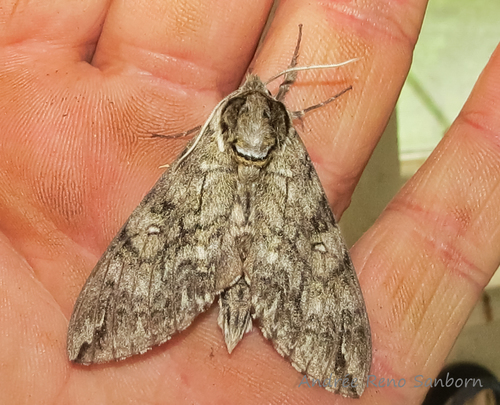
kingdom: Animalia
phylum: Arthropoda
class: Insecta
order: Lepidoptera
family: Sphingidae
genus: Ceratomia
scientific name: Ceratomia undulosa
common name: Waved sphinx
